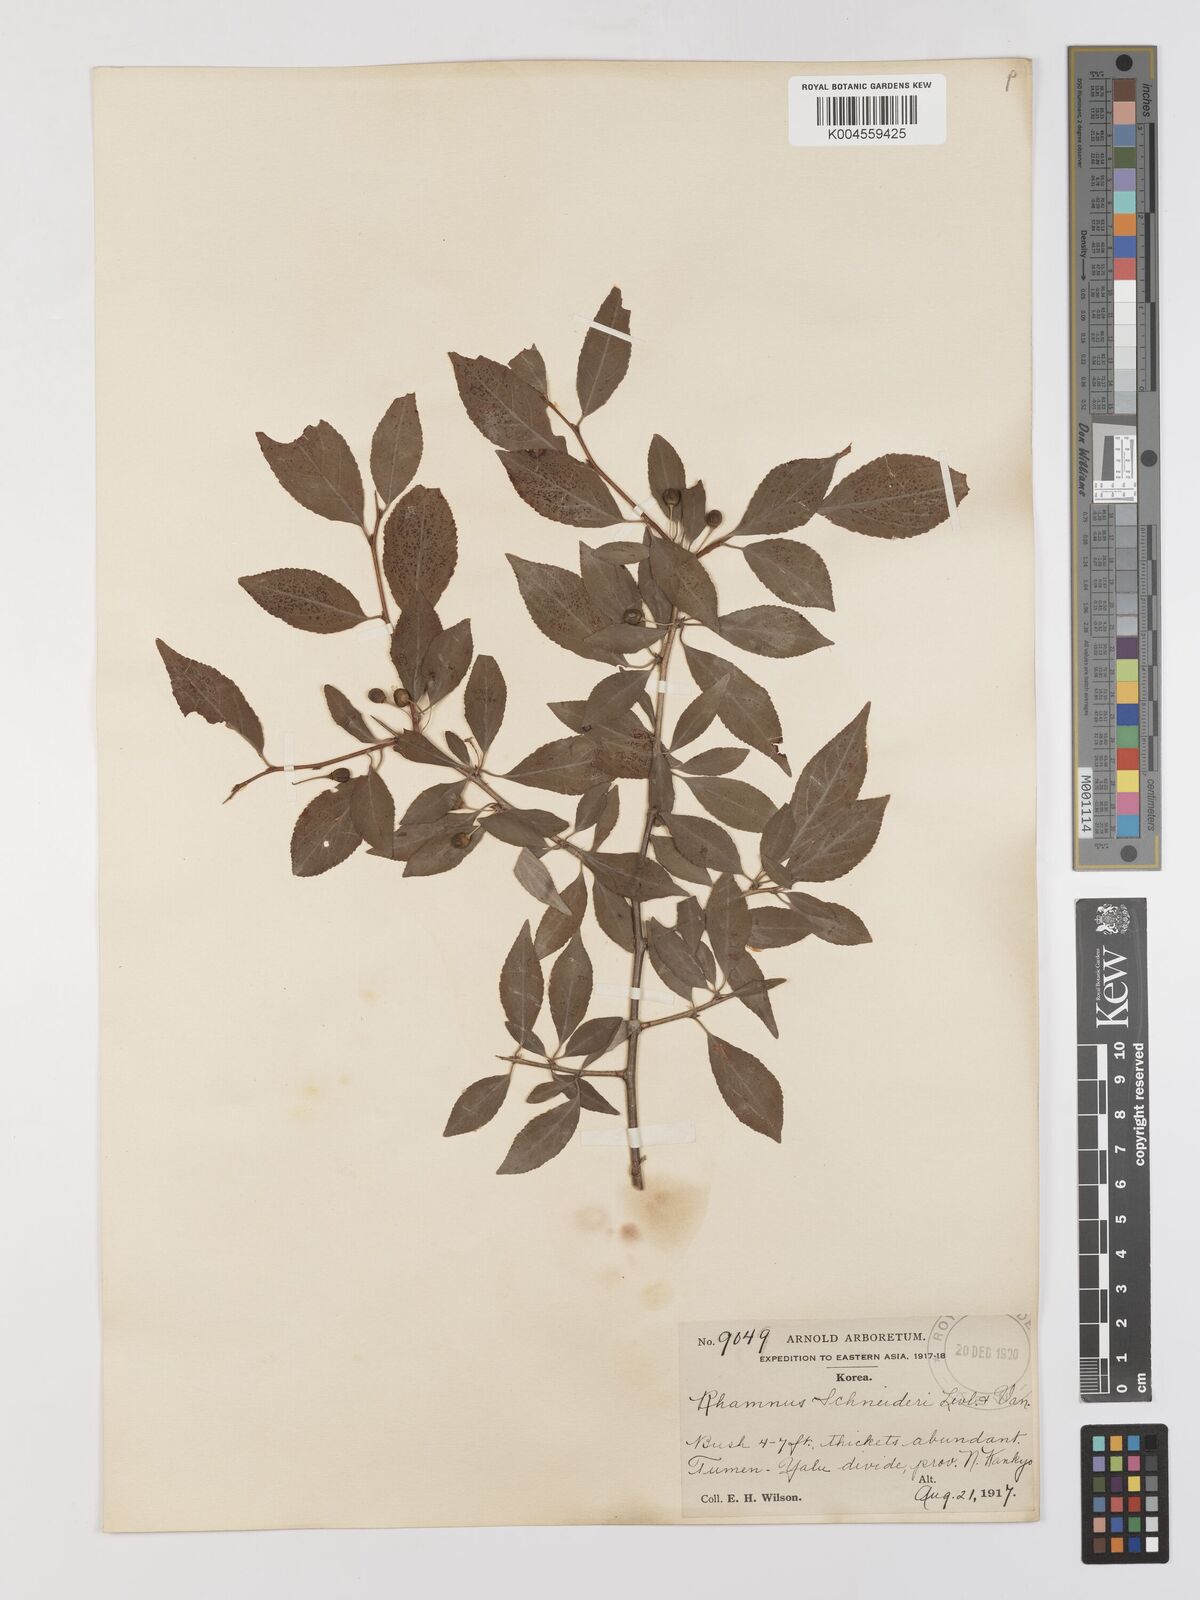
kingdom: Plantae
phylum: Tracheophyta
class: Magnoliopsida
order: Rosales
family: Rhamnaceae
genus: Rhamnus
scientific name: Rhamnus schneideri
